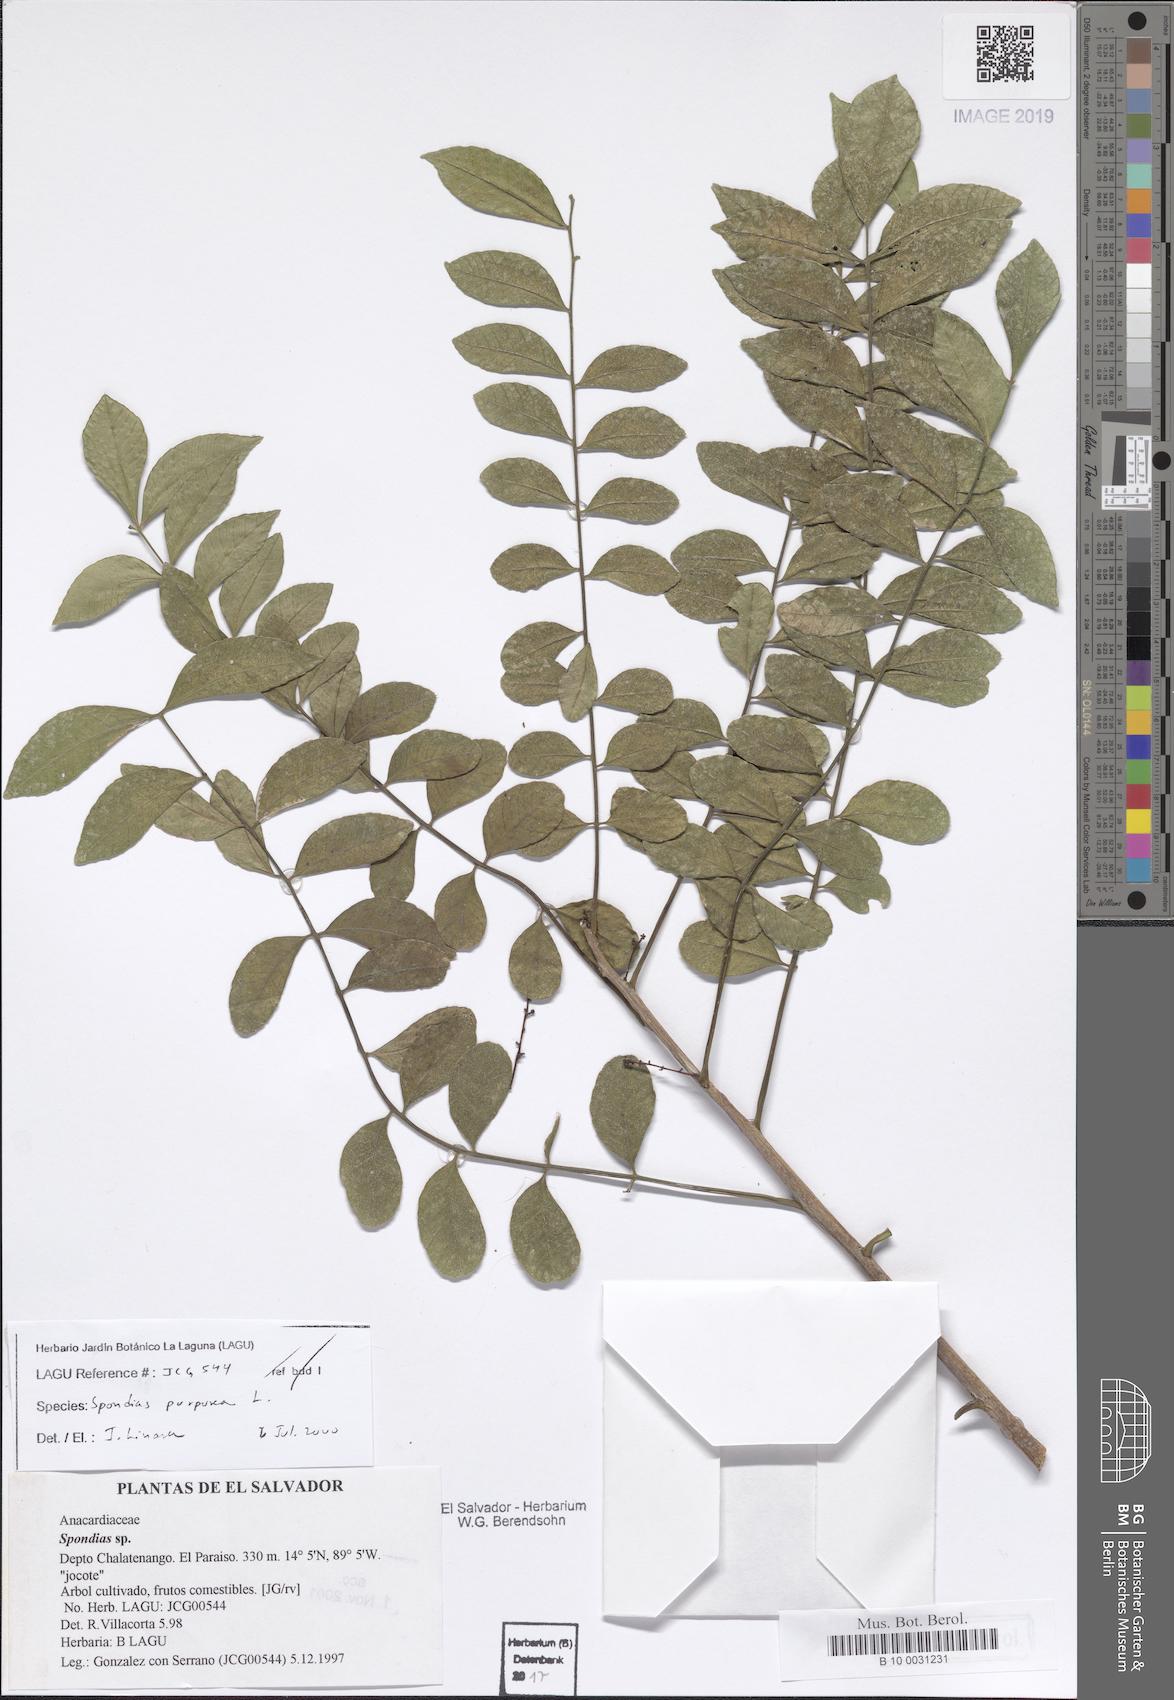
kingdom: Plantae
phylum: Tracheophyta
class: Magnoliopsida
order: Sapindales
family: Anacardiaceae
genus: Spondias
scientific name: Spondias purpurea
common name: Purple mombin
